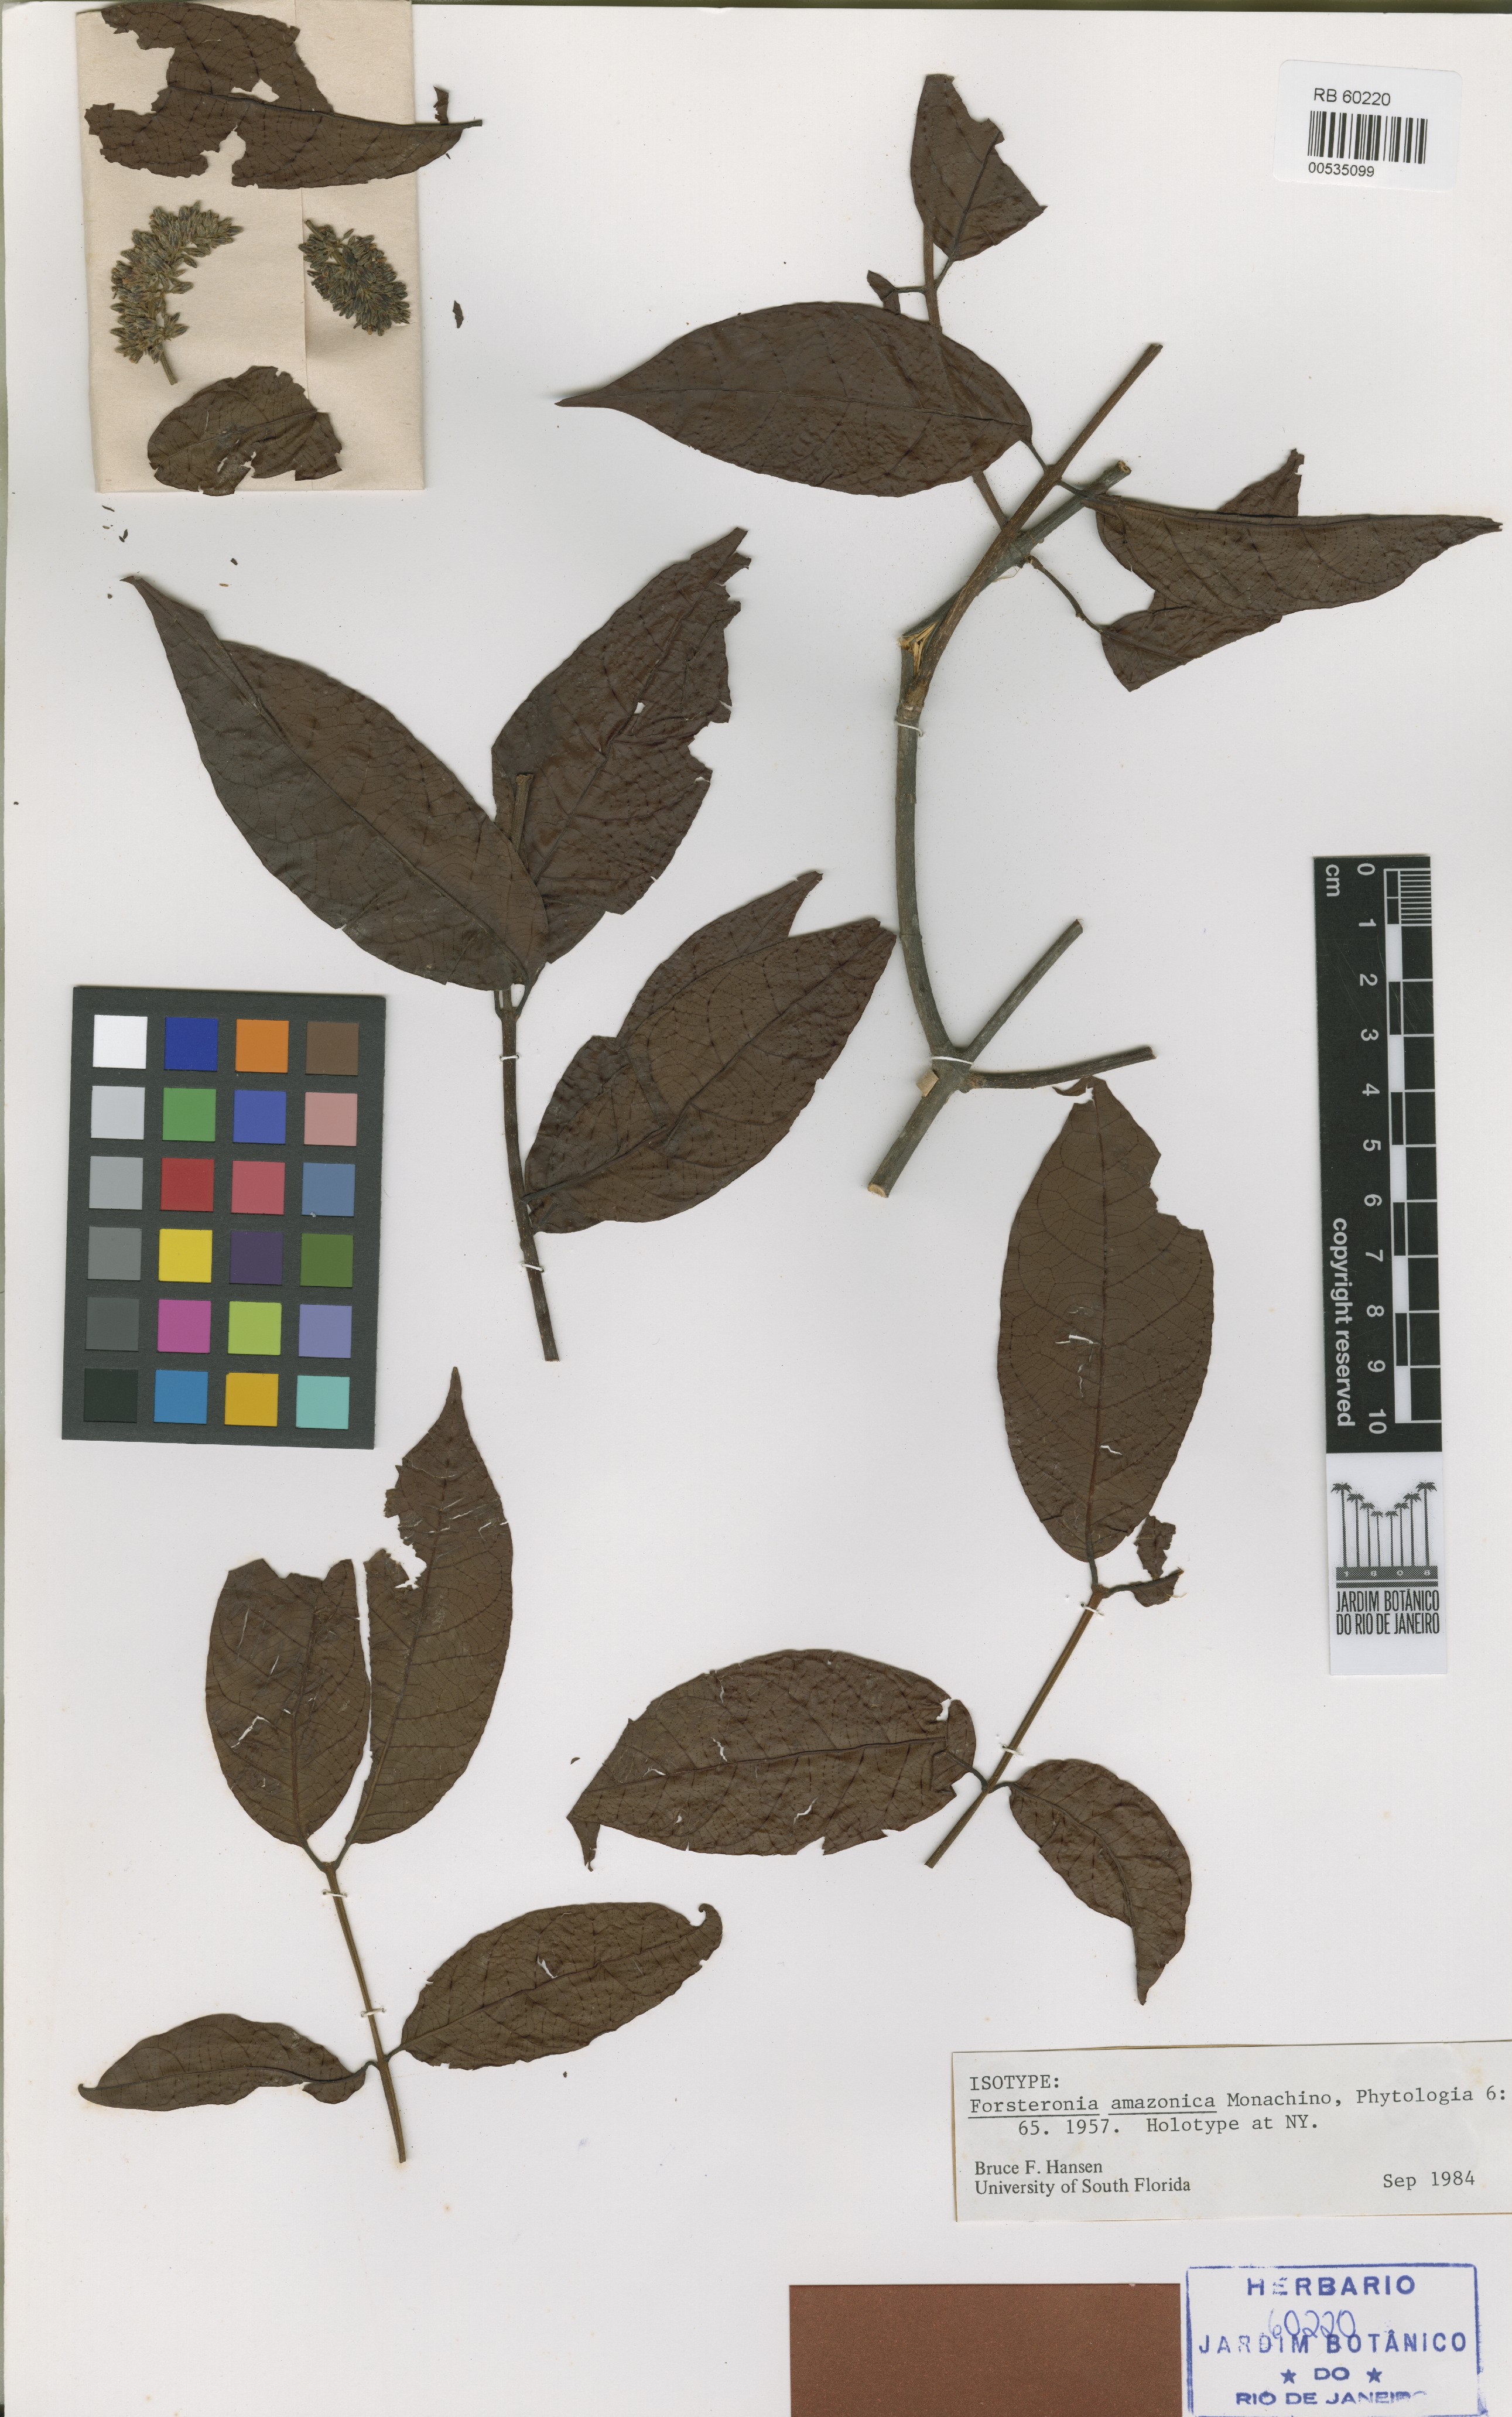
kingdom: Plantae
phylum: Tracheophyta
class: Magnoliopsida
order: Gentianales
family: Apocynaceae
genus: Forsteronia
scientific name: Forsteronia amazonica
